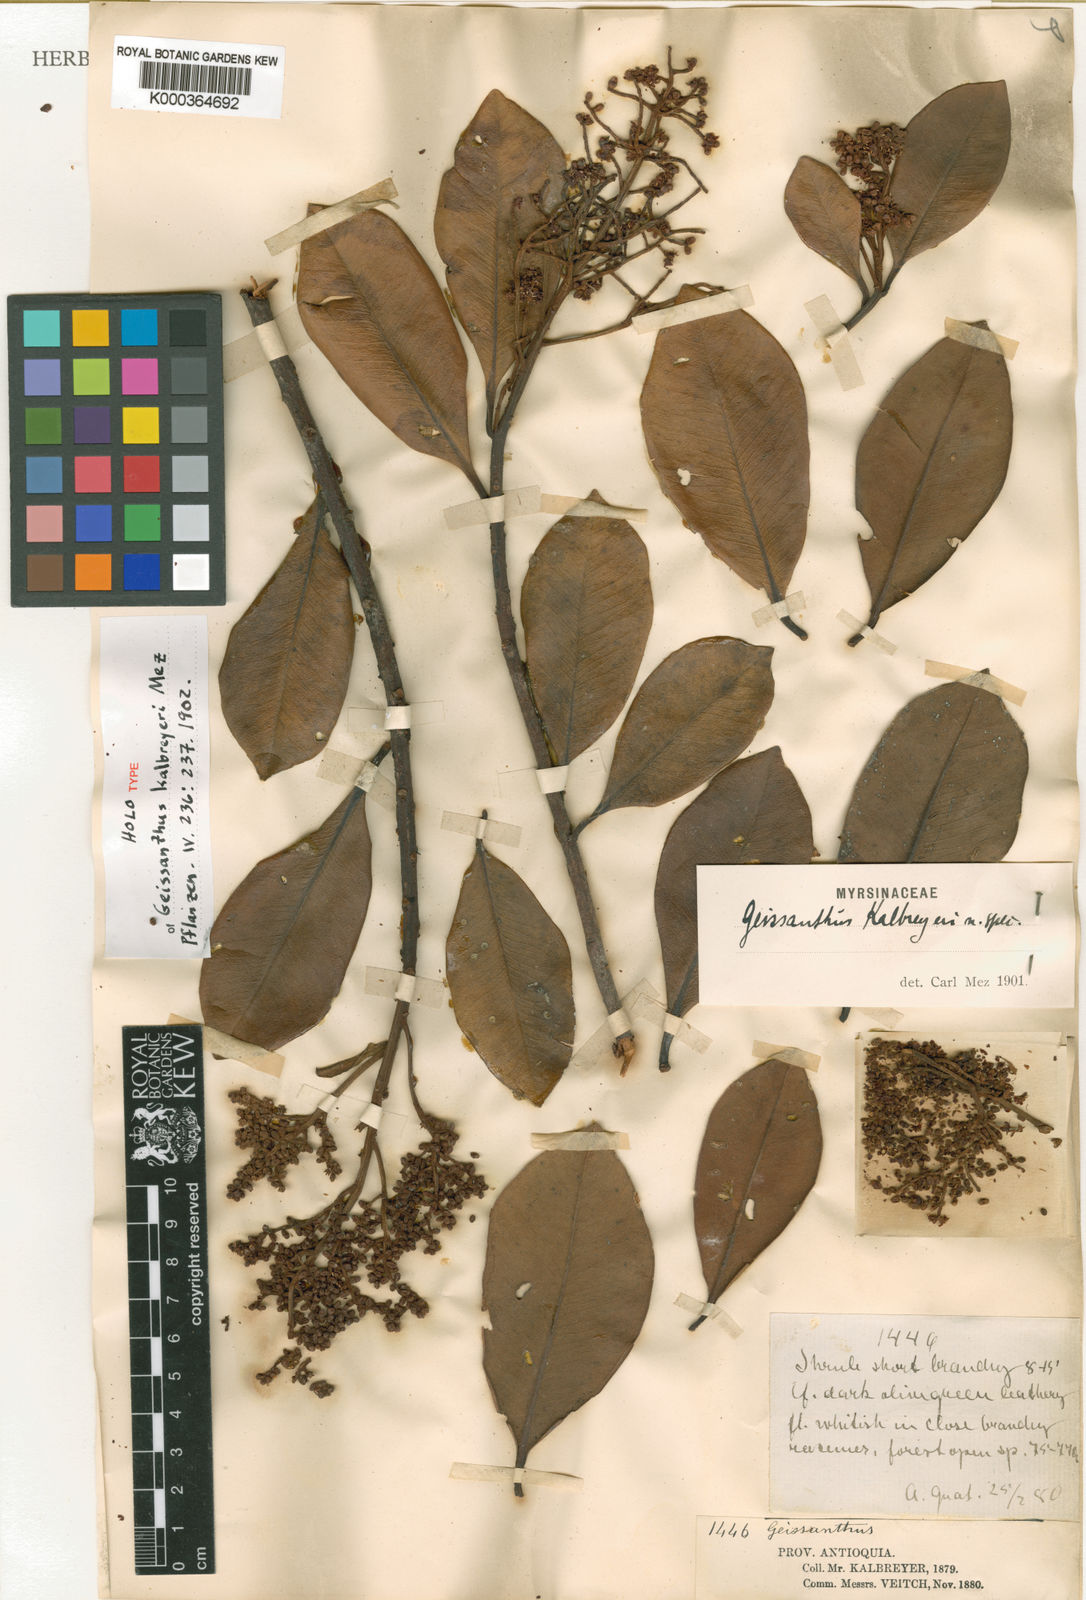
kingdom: Plantae
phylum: Tracheophyta
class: Magnoliopsida
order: Ericales
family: Primulaceae
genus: Geissanthus
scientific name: Geissanthus kalbreyeri
